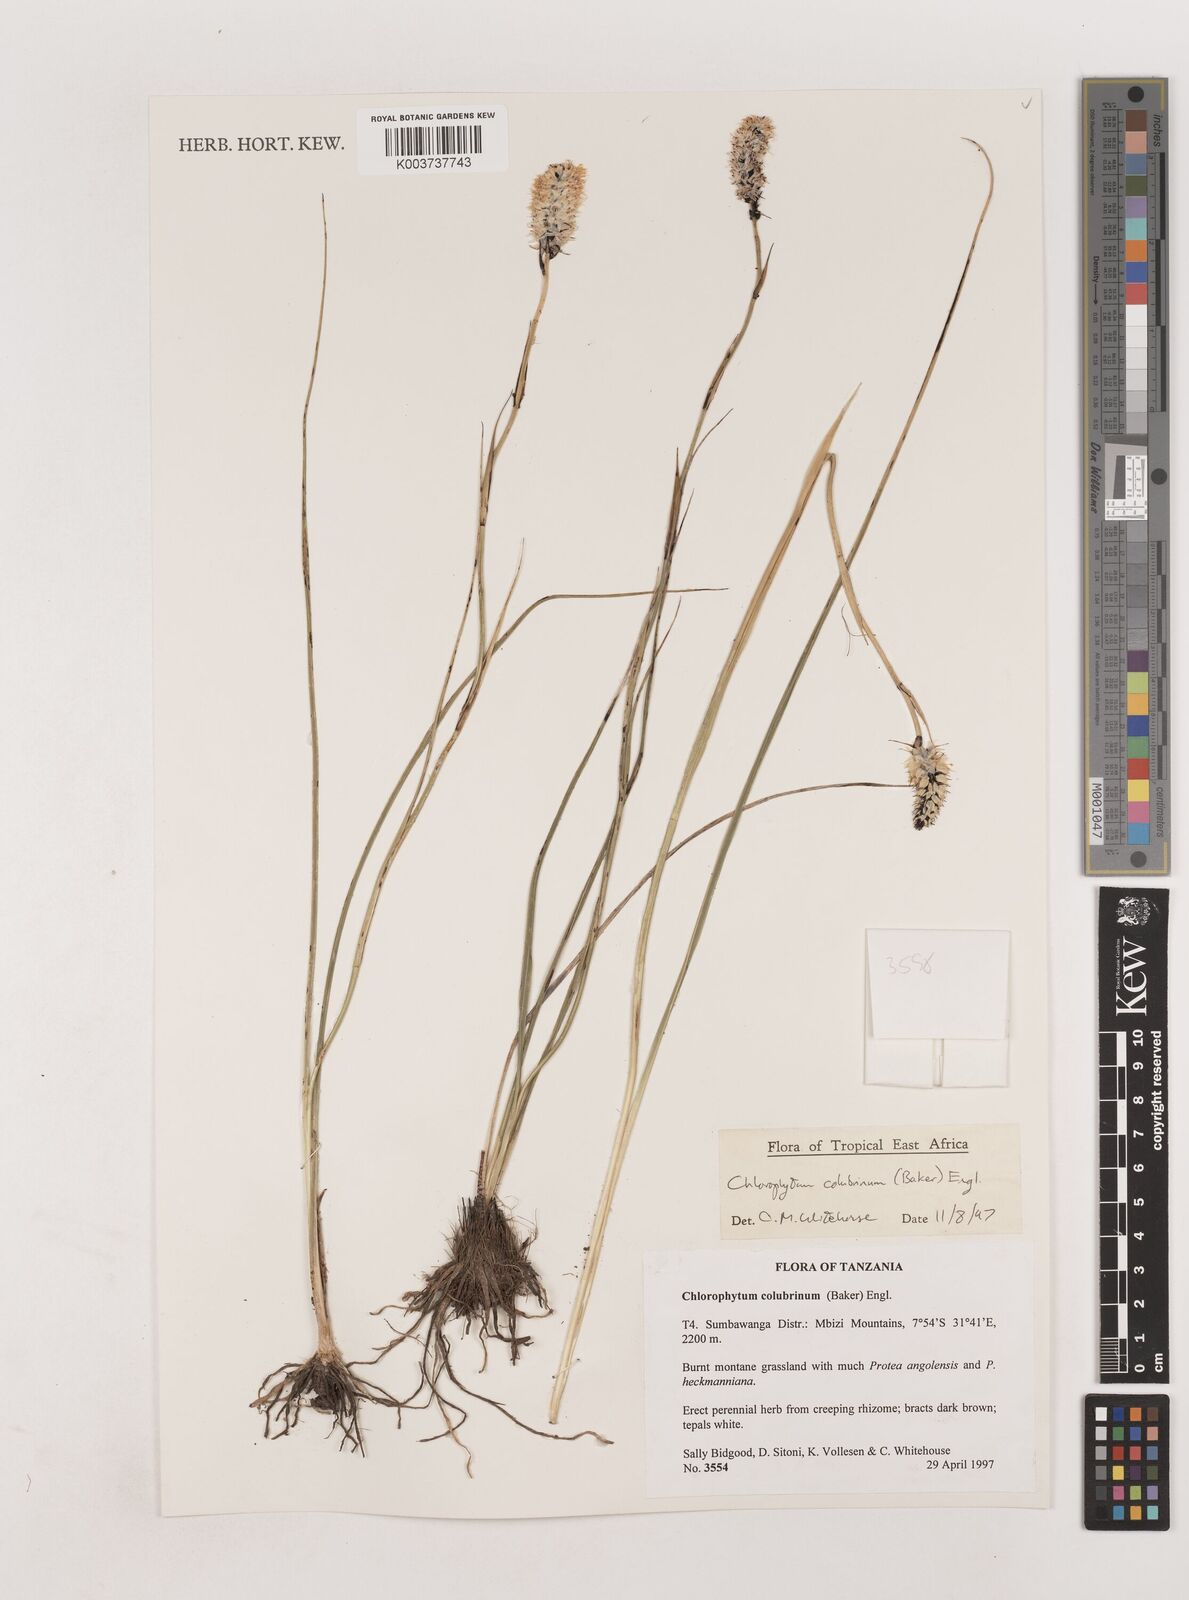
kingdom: Plantae
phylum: Tracheophyta
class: Liliopsida
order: Asparagales
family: Asparagaceae
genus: Chlorophytum
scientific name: Chlorophytum colubrinum
